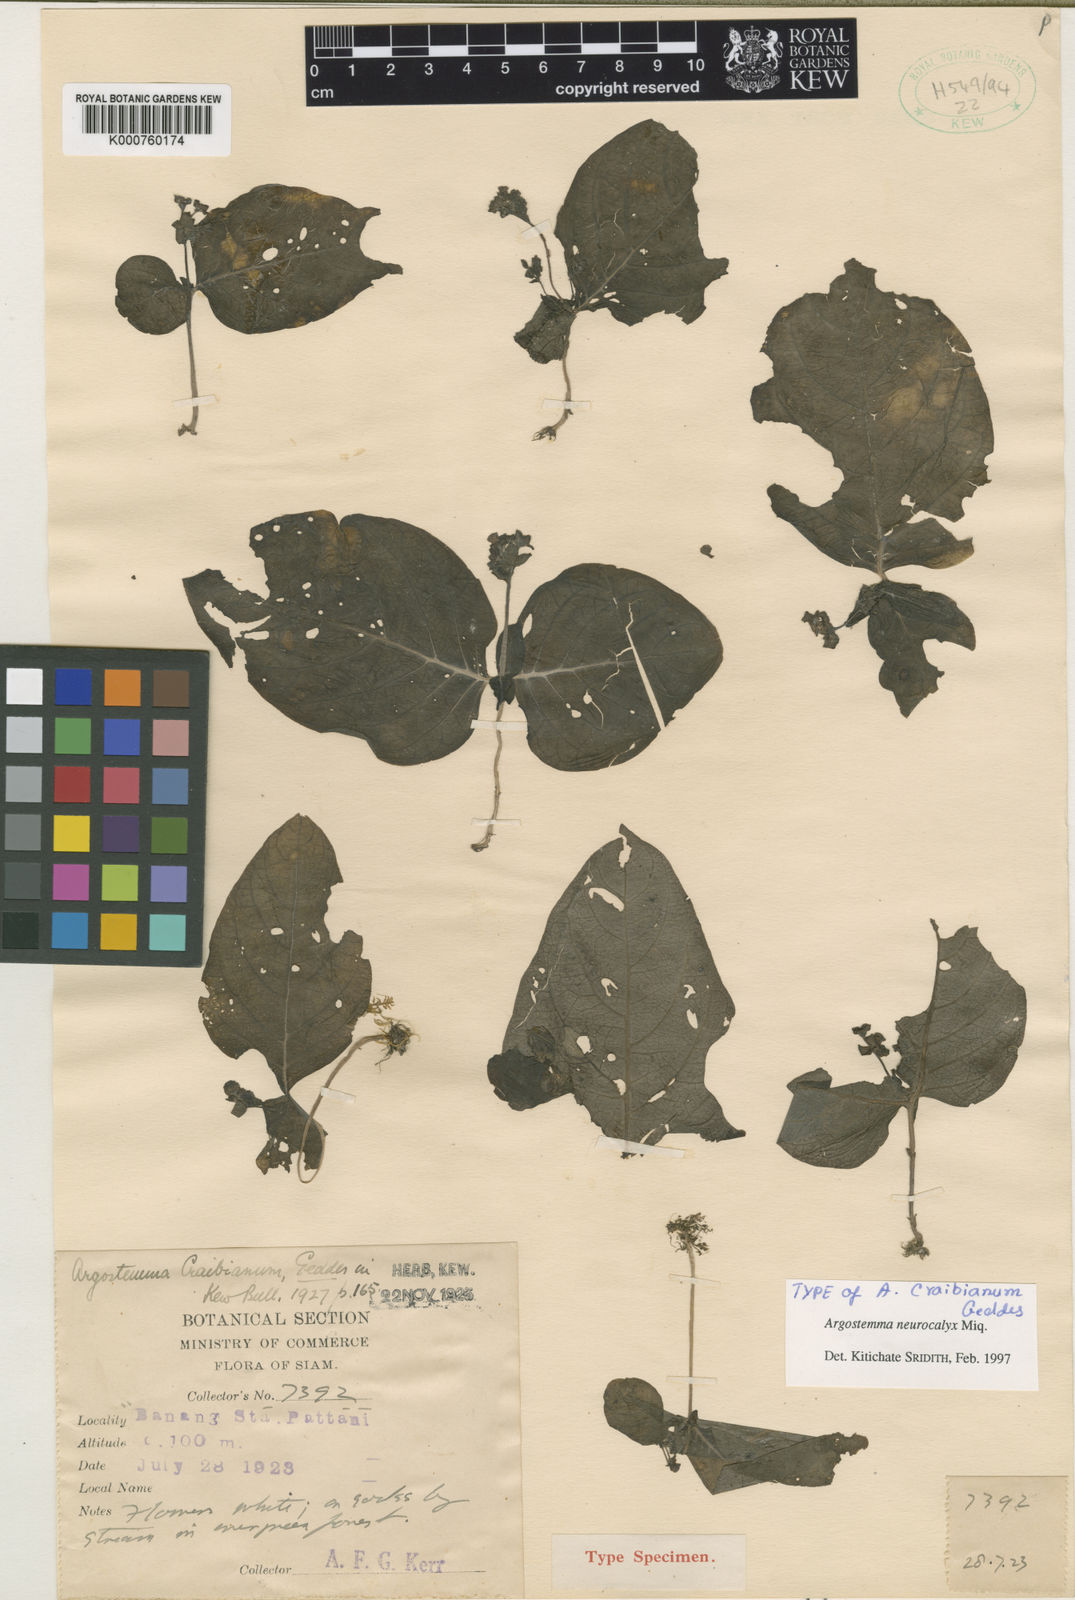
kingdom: Plantae
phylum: Tracheophyta
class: Magnoliopsida
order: Gentianales
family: Rubiaceae
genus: Argostemma
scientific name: Argostemma neurocalyx
